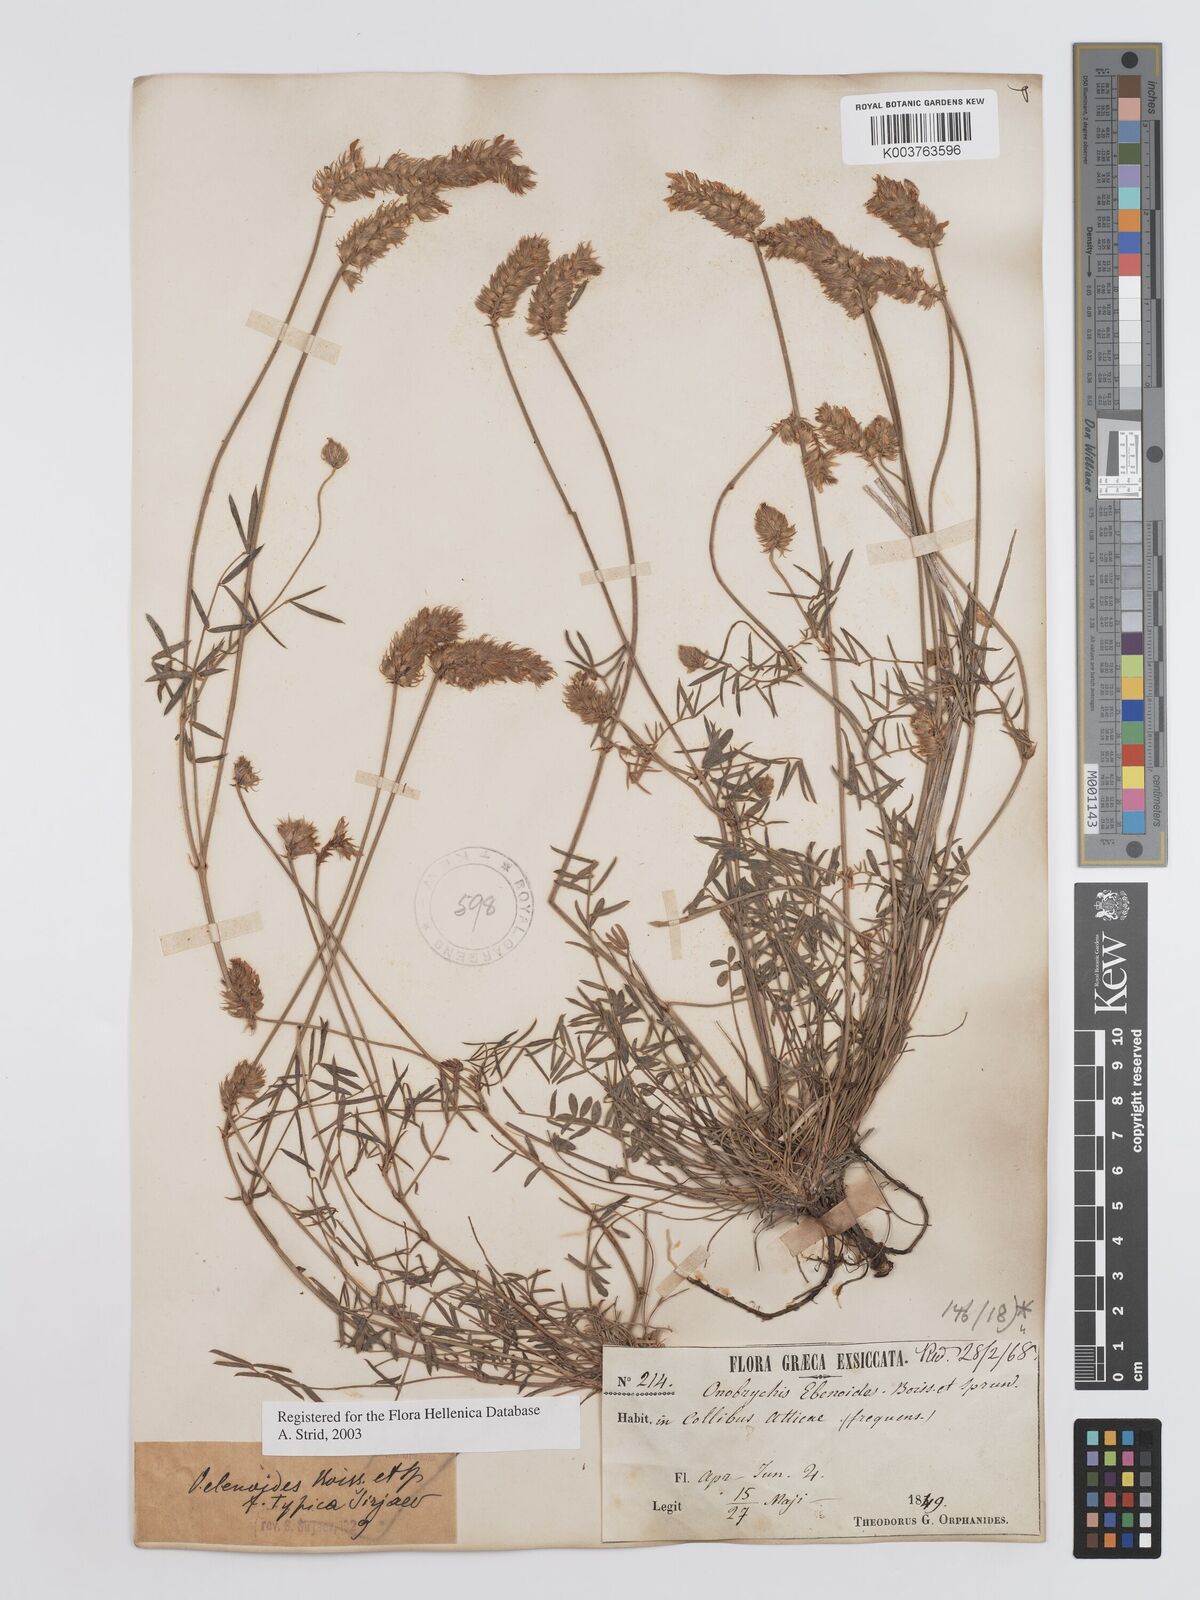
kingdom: Plantae
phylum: Tracheophyta
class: Magnoliopsida
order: Fabales
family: Fabaceae
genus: Onobrychis
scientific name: Onobrychis ebenoides
